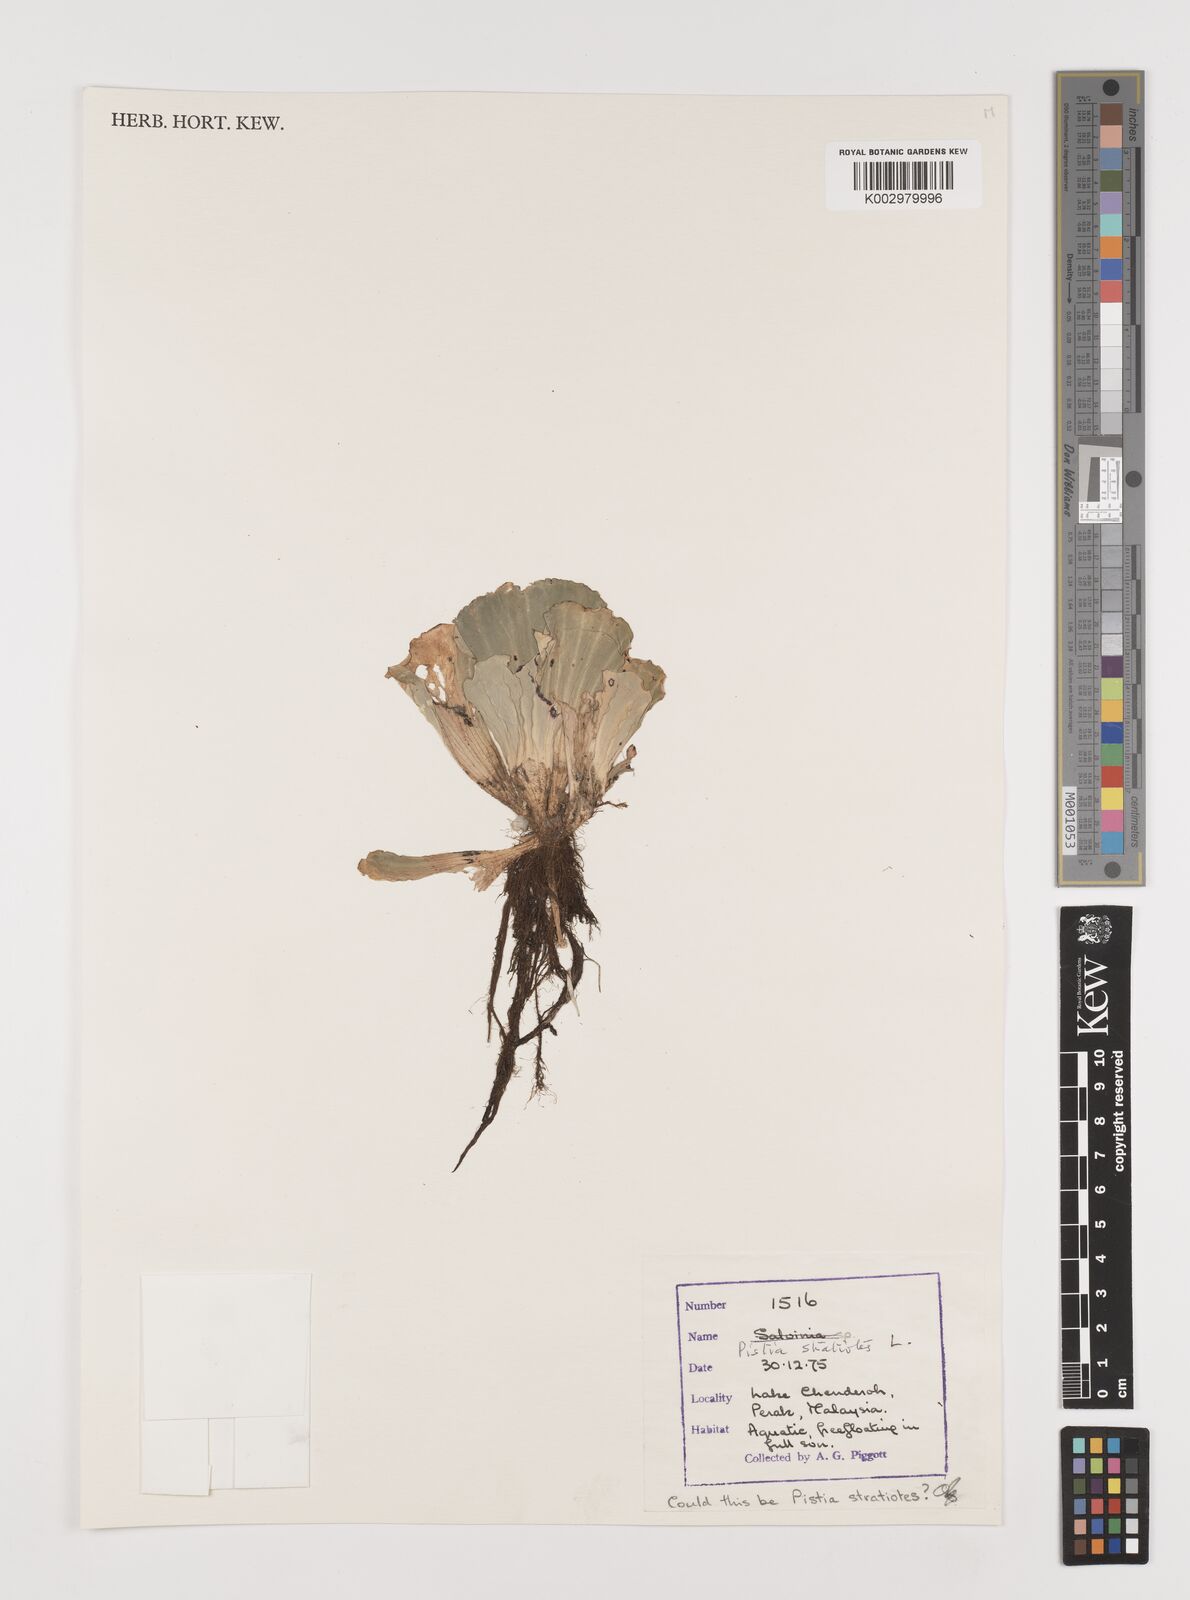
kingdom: Plantae
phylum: Tracheophyta
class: Liliopsida
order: Alismatales
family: Araceae
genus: Pistia
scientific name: Pistia stratiotes
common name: Water lettuce
